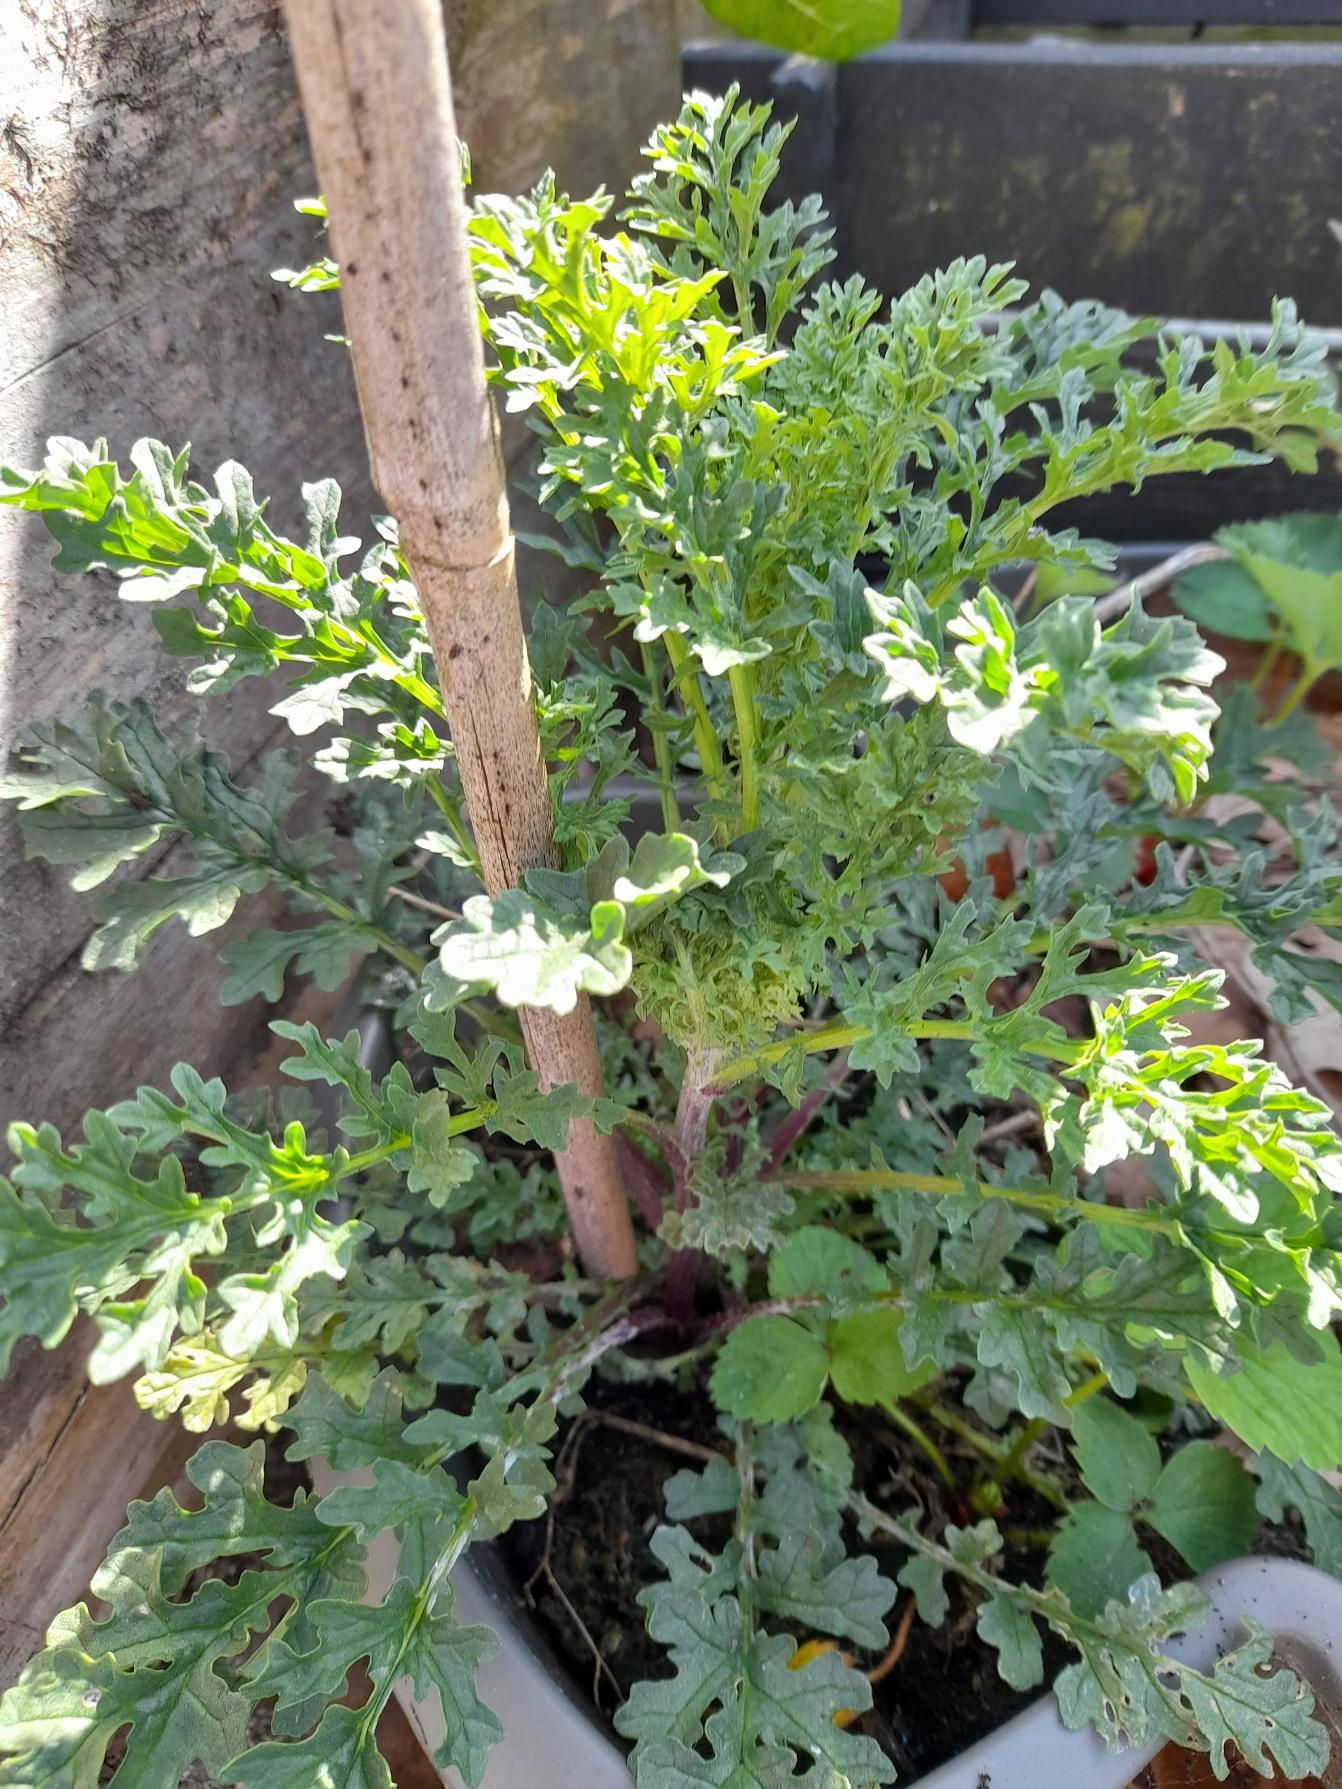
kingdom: Plantae
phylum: Tracheophyta
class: Magnoliopsida
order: Asterales
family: Asteraceae
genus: Jacobaea
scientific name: Jacobaea vulgaris
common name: Eng-brandbæger
